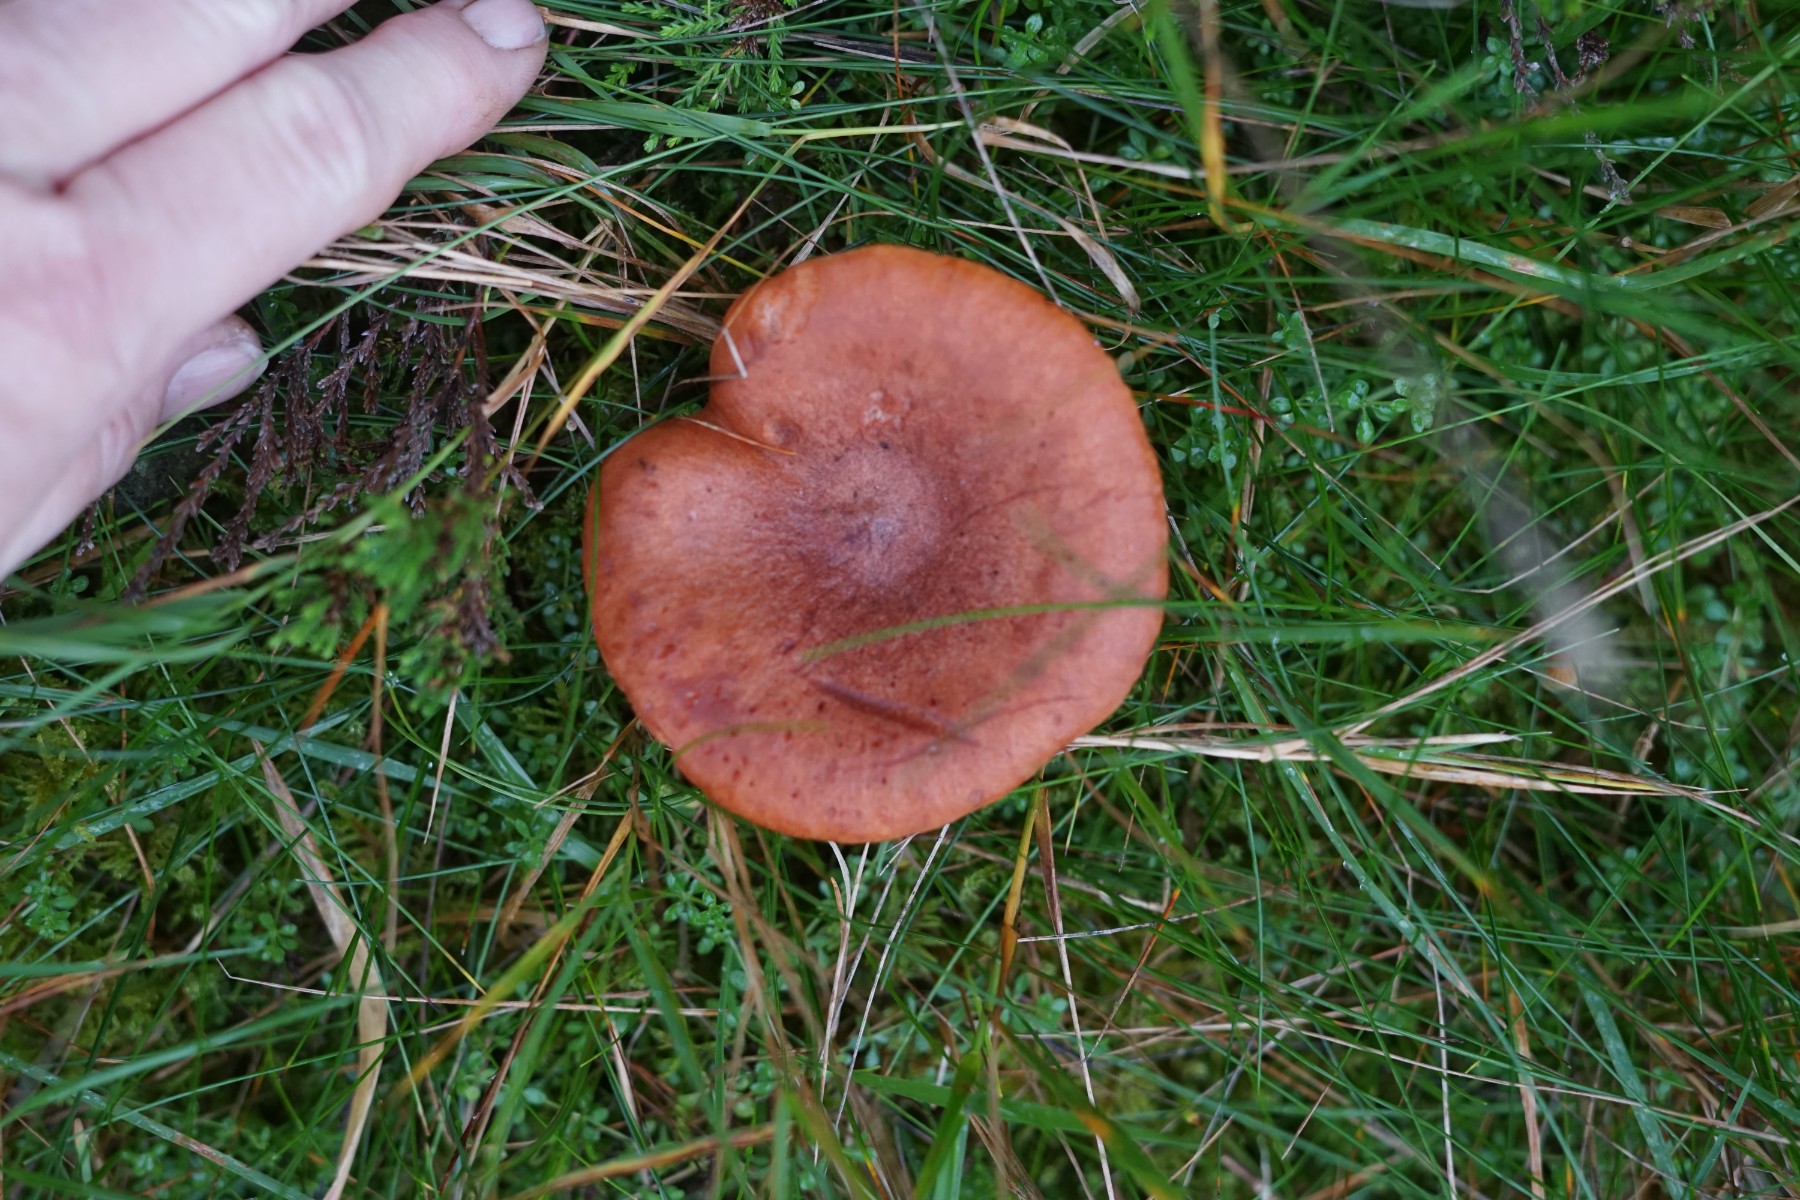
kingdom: Fungi
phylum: Basidiomycota
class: Agaricomycetes
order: Russulales
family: Russulaceae
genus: Lactarius
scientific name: Lactarius rufus
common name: rødbrun mælkehat
